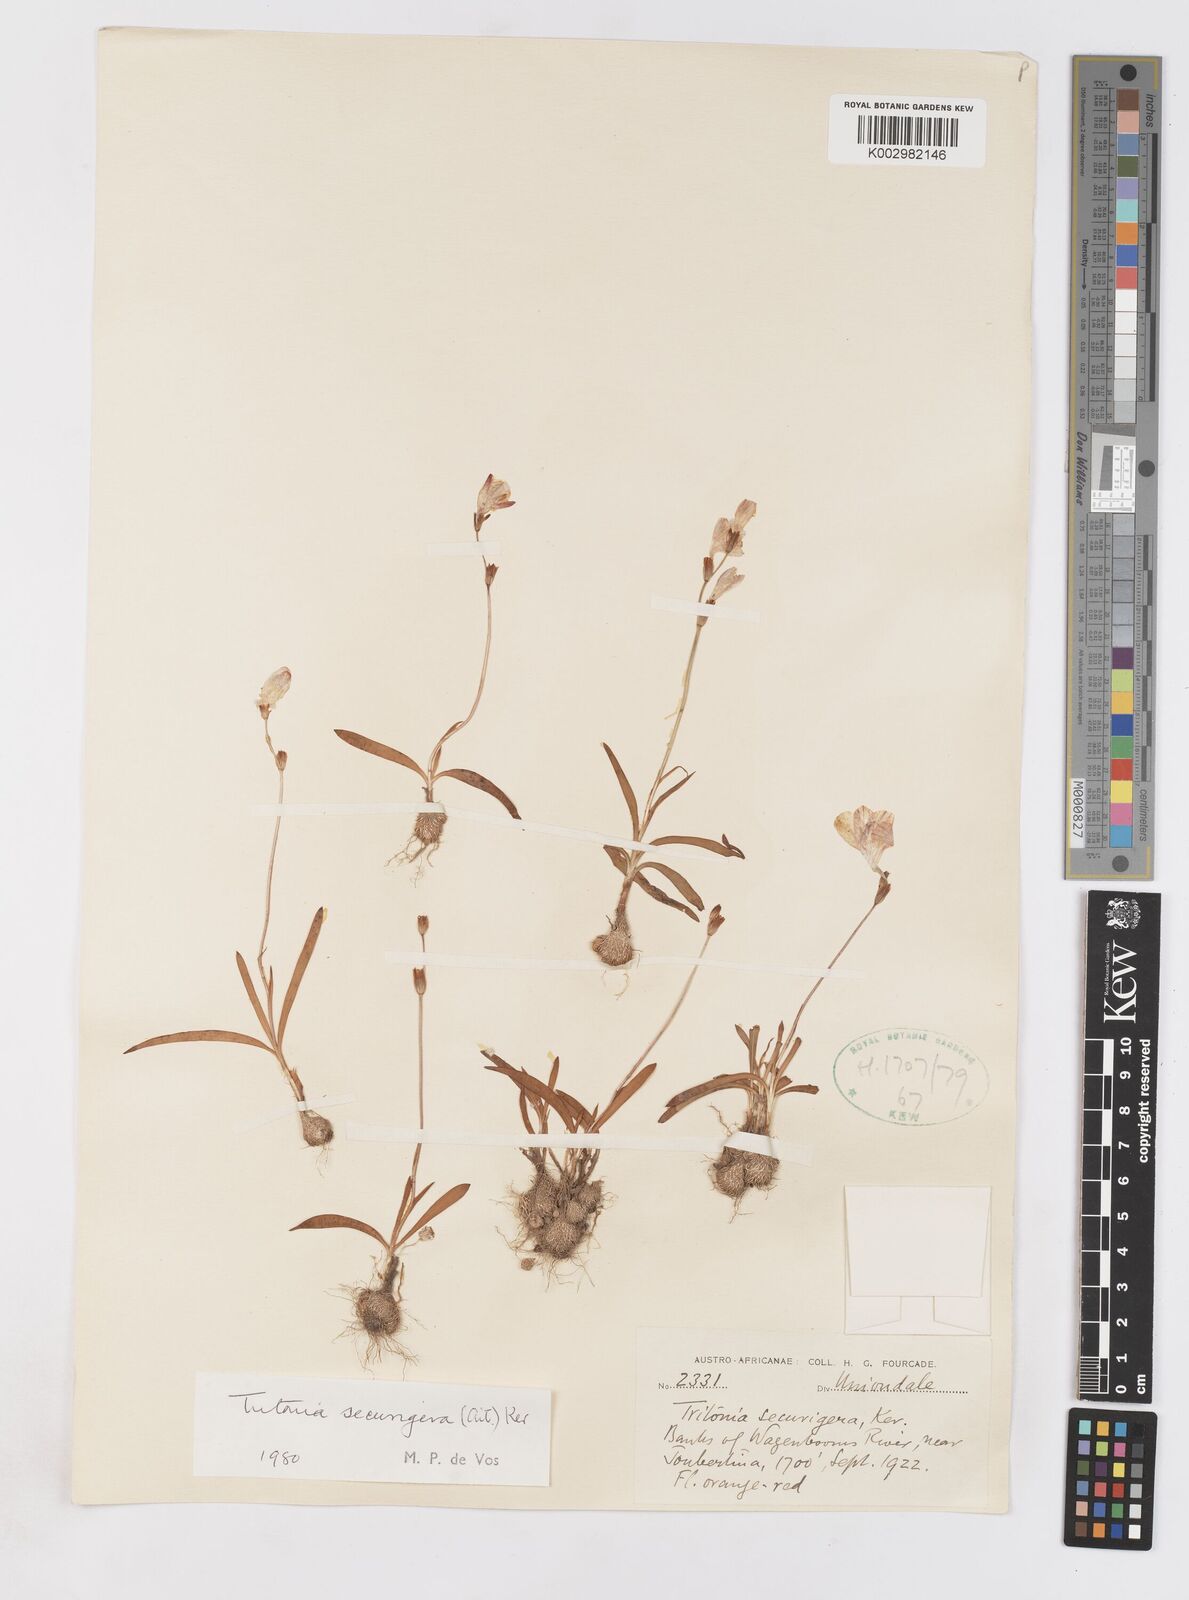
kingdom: Plantae
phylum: Tracheophyta
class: Liliopsida
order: Asparagales
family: Iridaceae
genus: Tritonia
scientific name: Tritonia securigera
